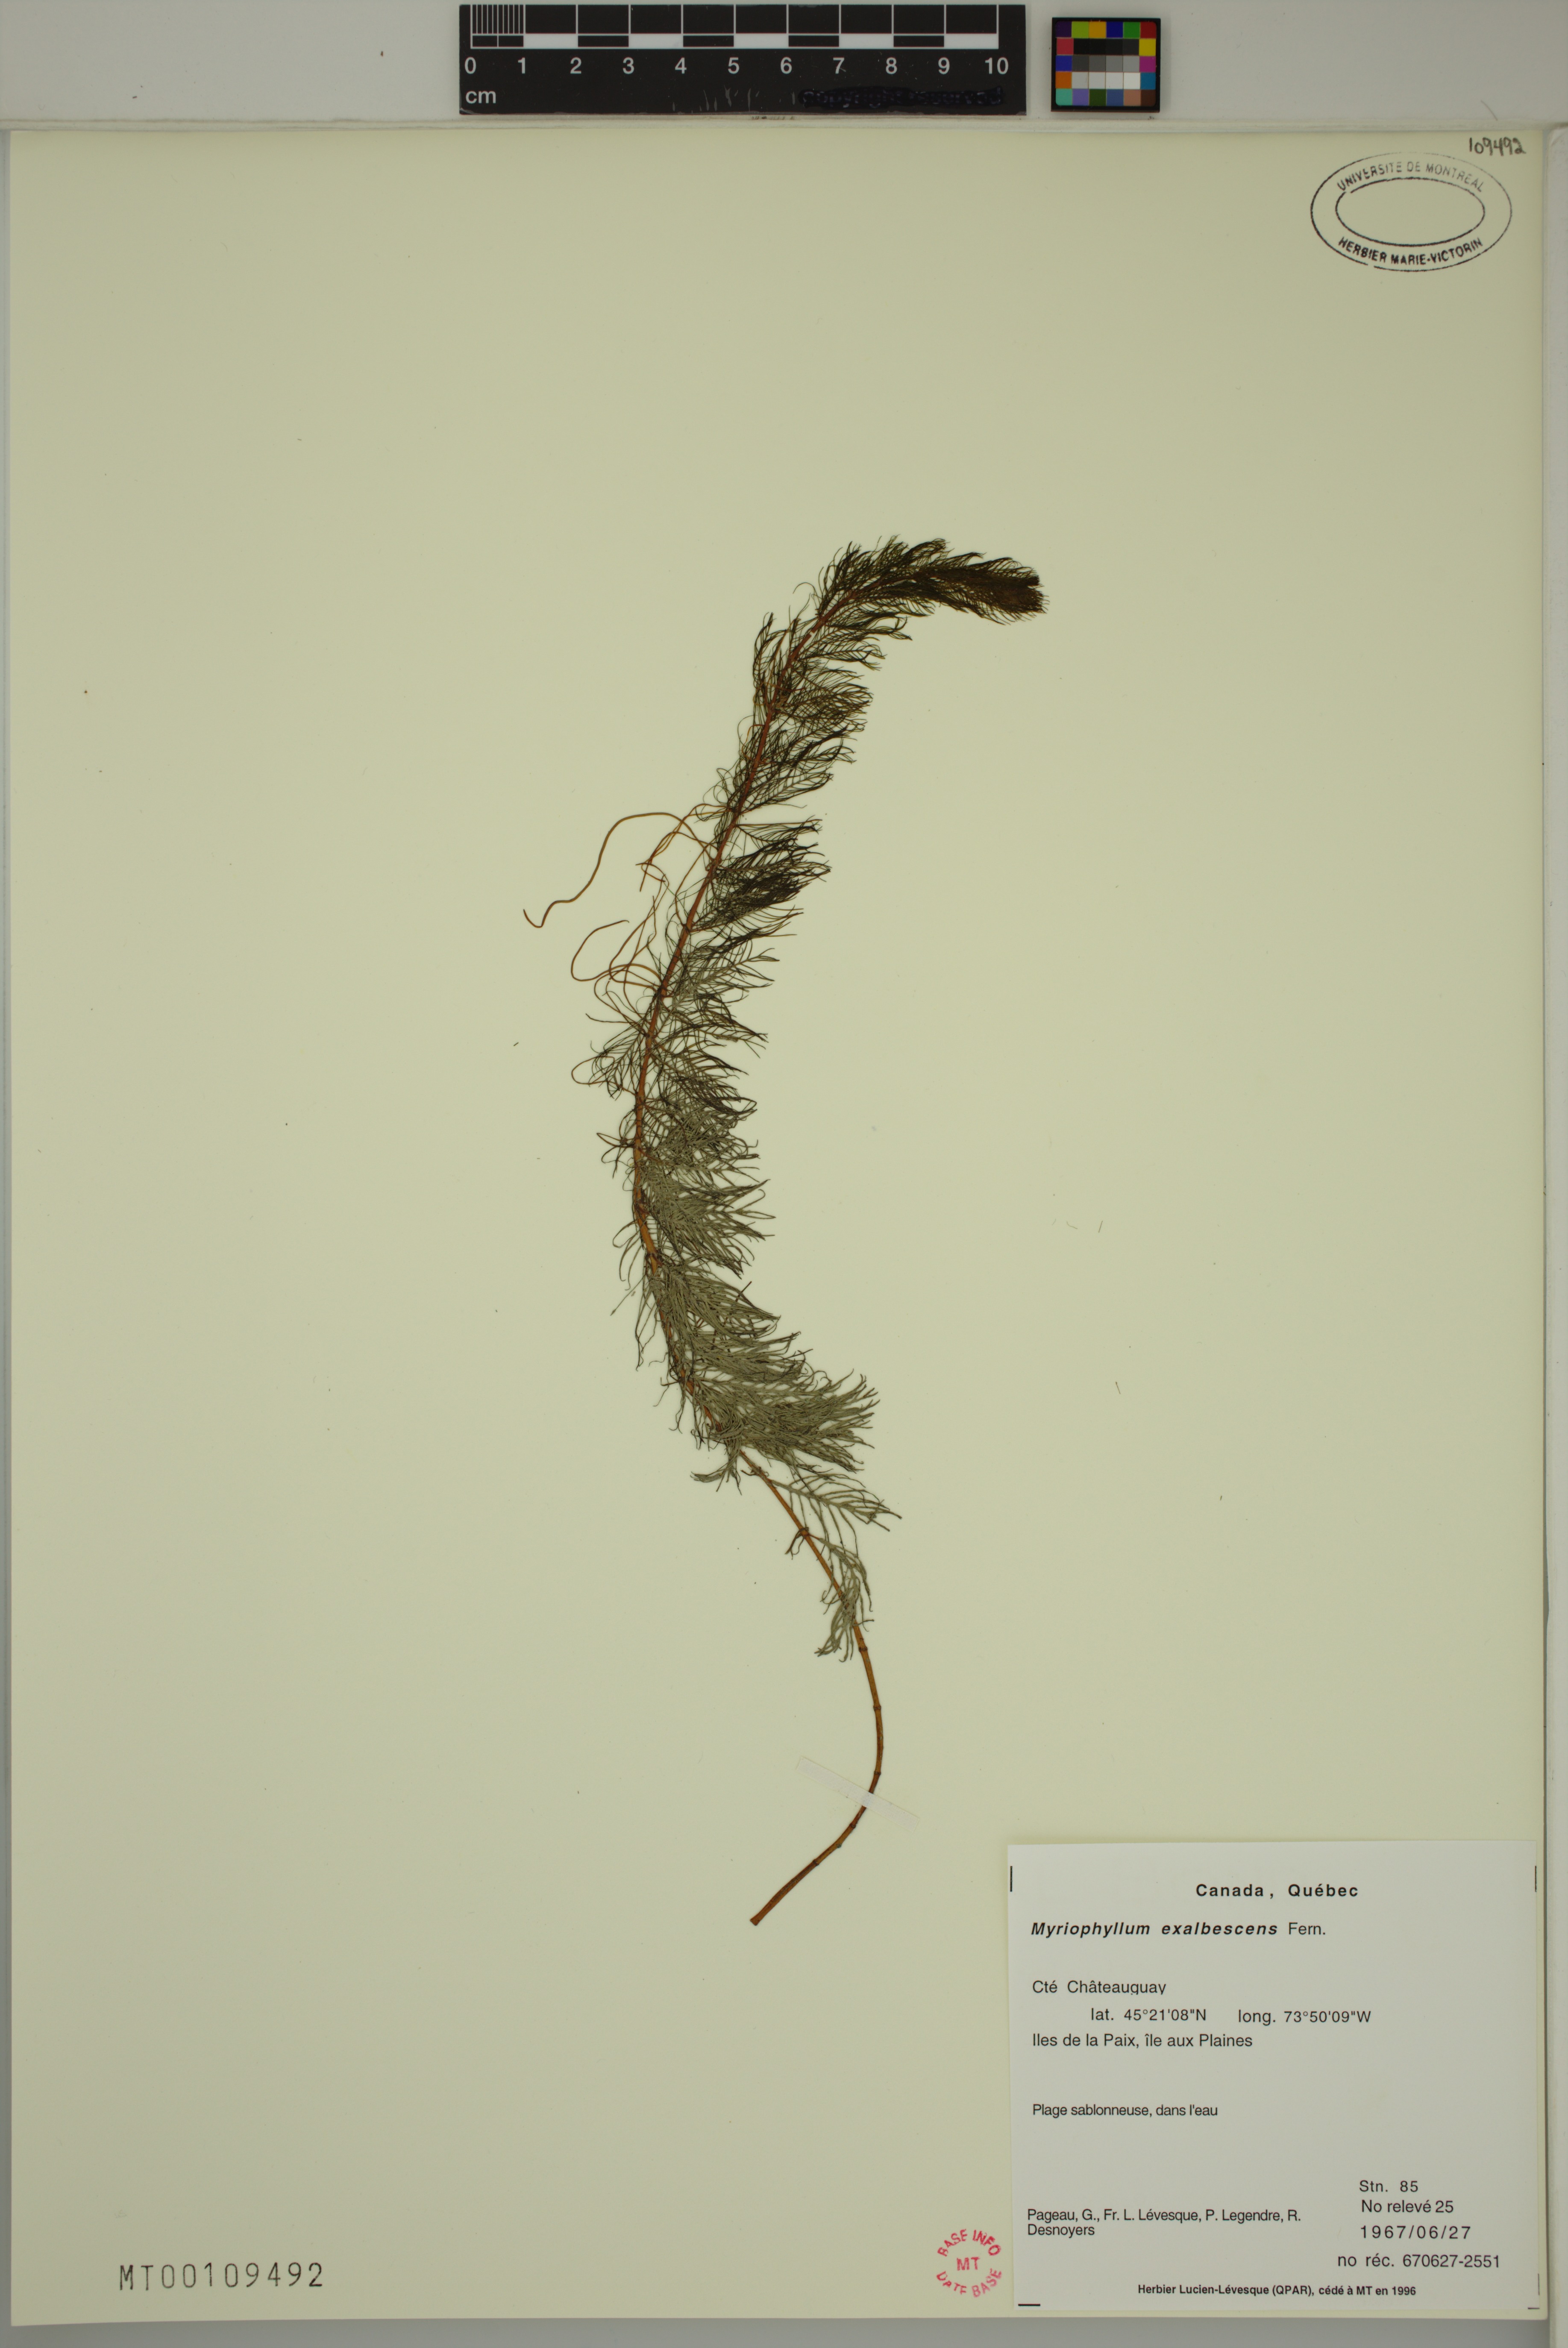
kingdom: Plantae
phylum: Tracheophyta
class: Magnoliopsida
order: Saxifragales
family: Haloragaceae
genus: Myriophyllum
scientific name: Myriophyllum sibiricum
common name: Siberian water-milfoil
